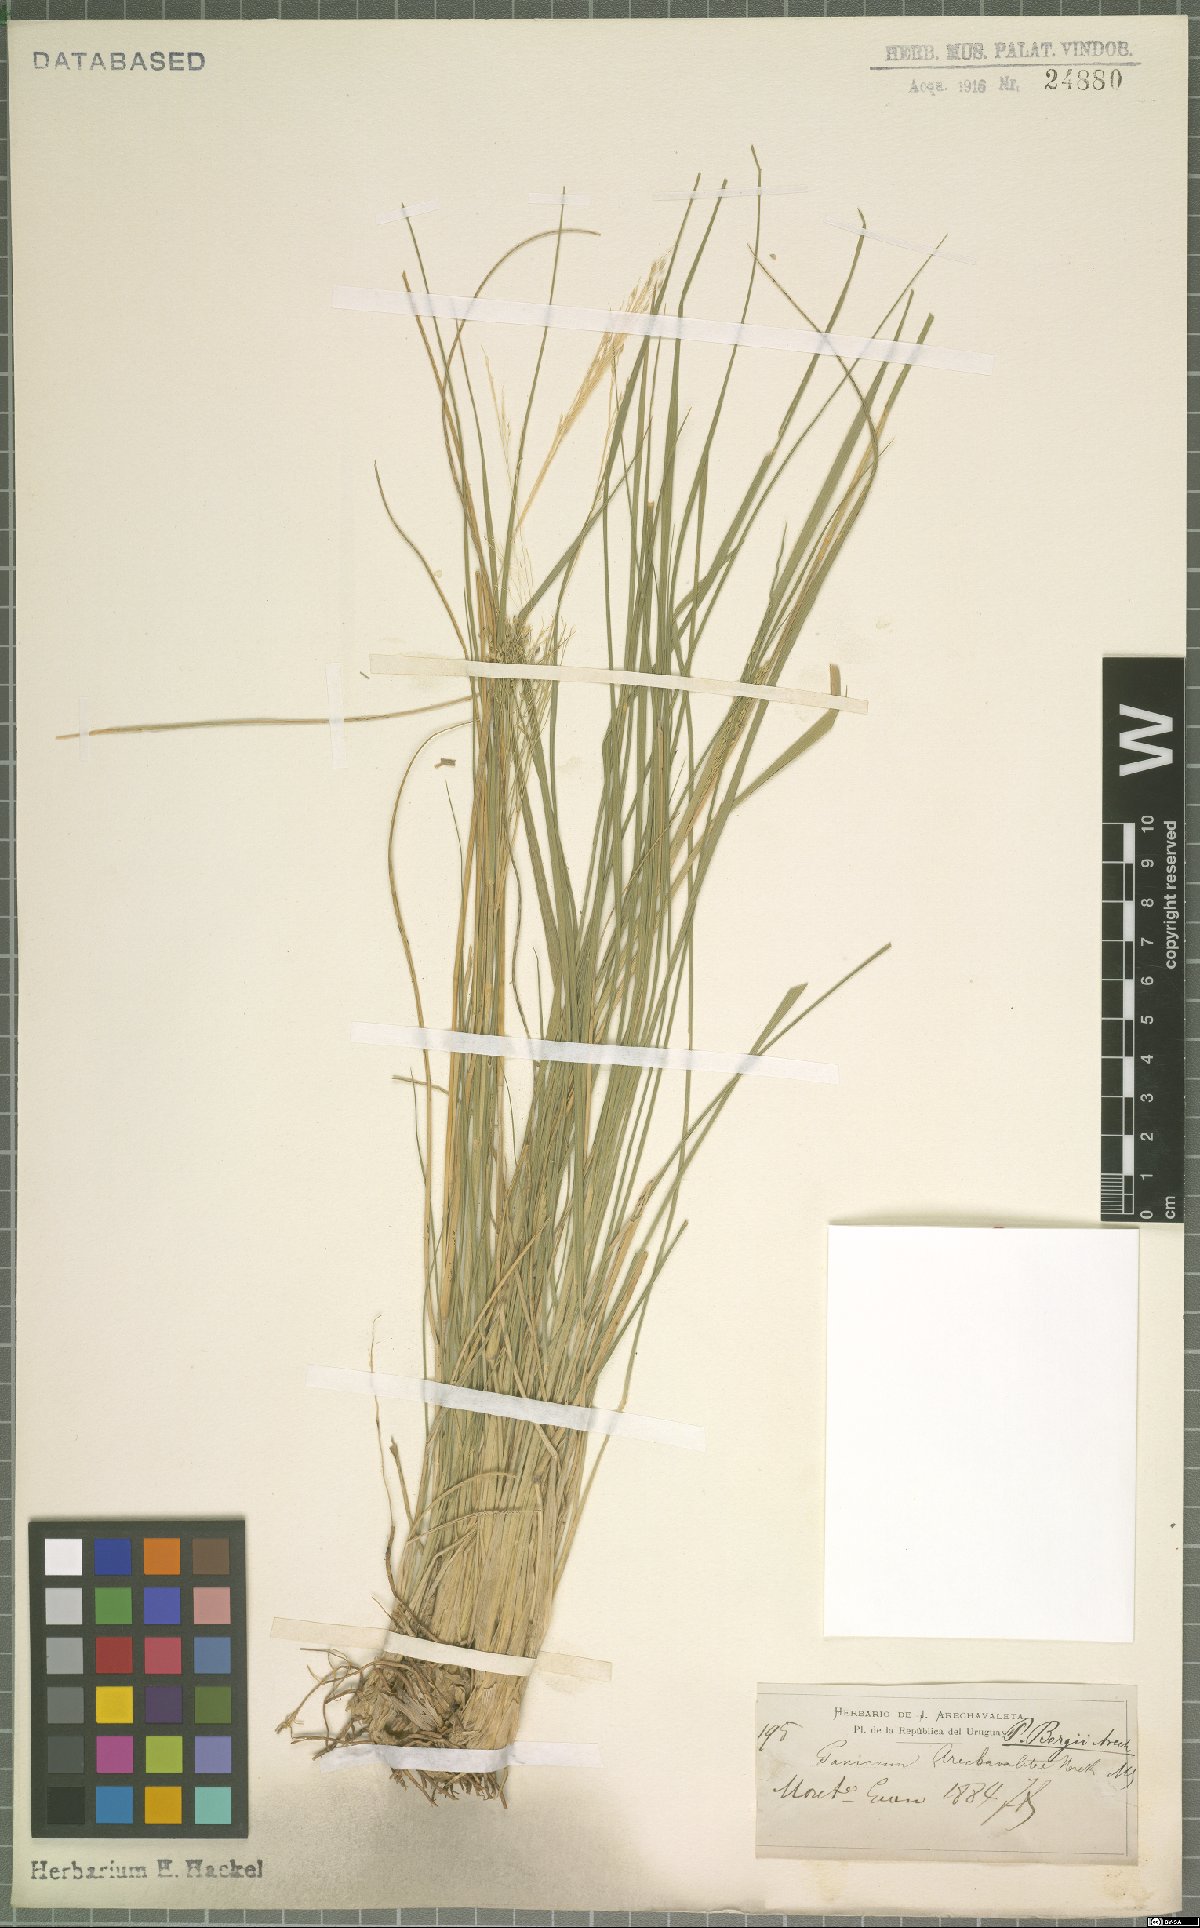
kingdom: Plantae
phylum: Tracheophyta
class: Liliopsida
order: Poales
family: Poaceae
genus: Panicum
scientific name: Panicum bergii
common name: Berg's panicgrass
